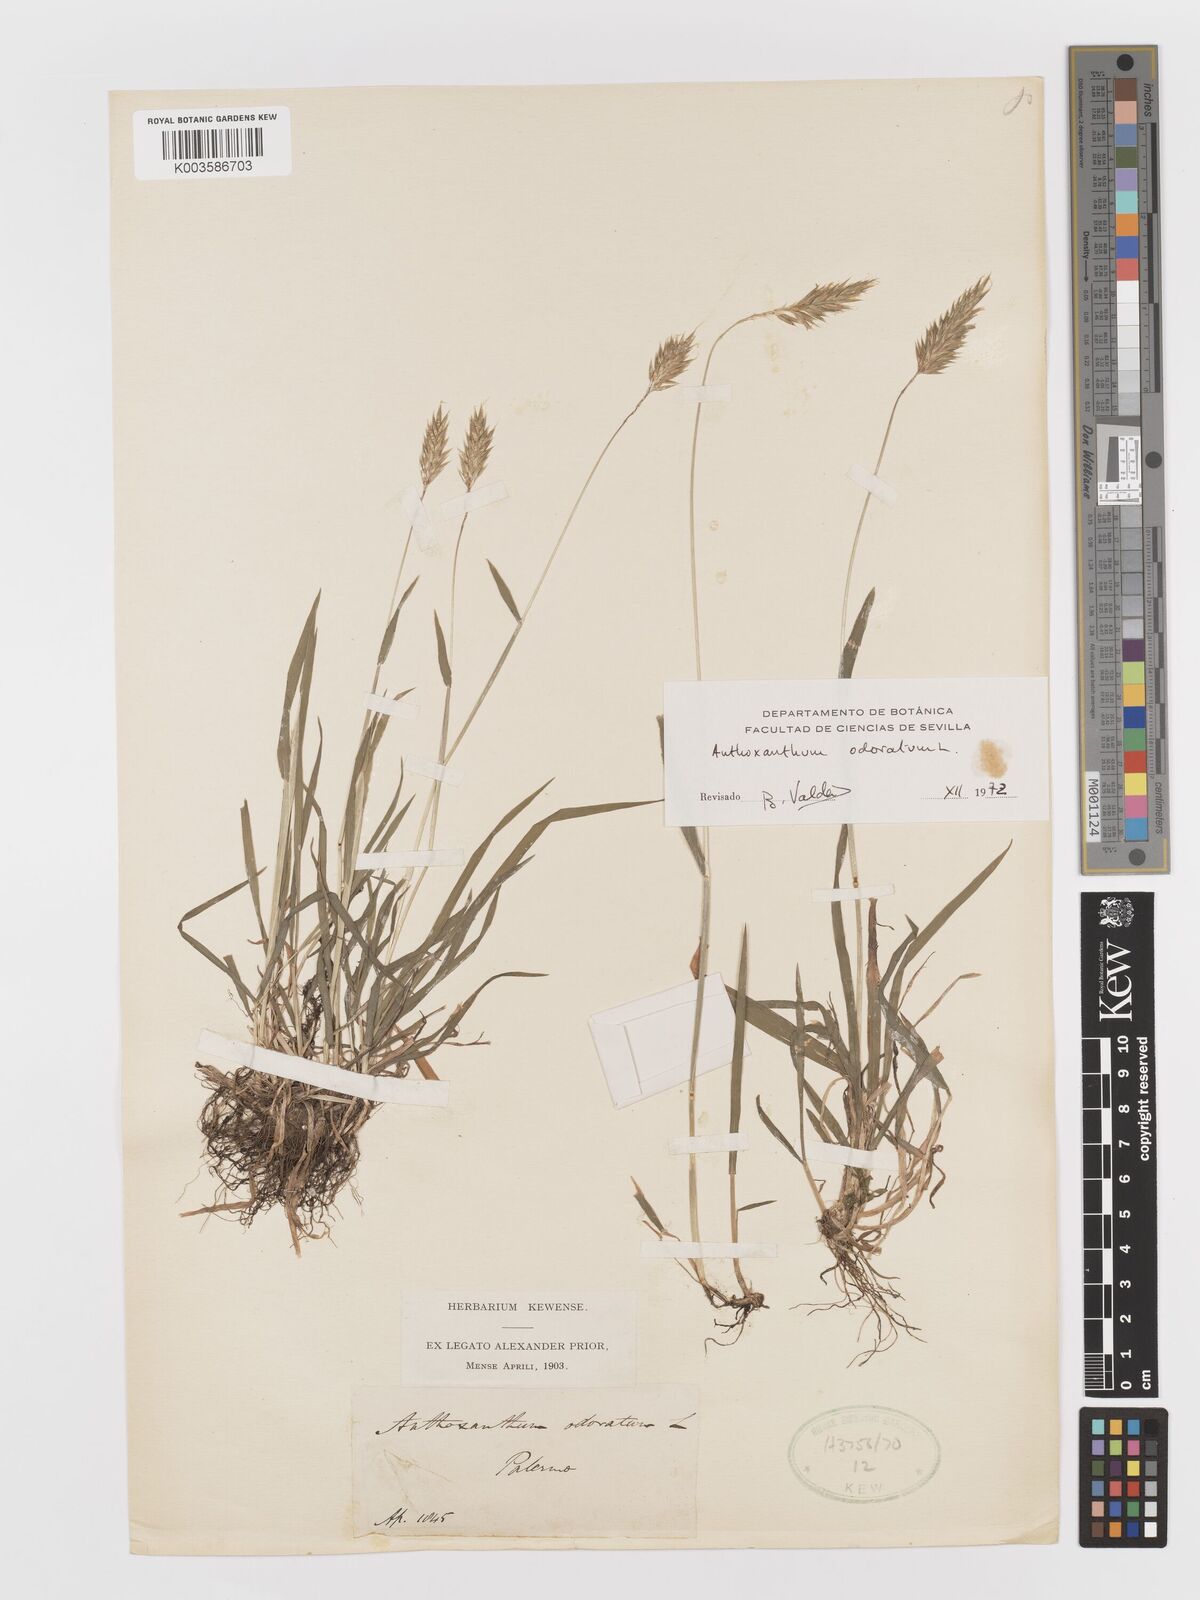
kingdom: Plantae
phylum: Tracheophyta
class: Liliopsida
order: Poales
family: Poaceae
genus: Anthoxanthum
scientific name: Anthoxanthum odoratum
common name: Sweet vernalgrass
